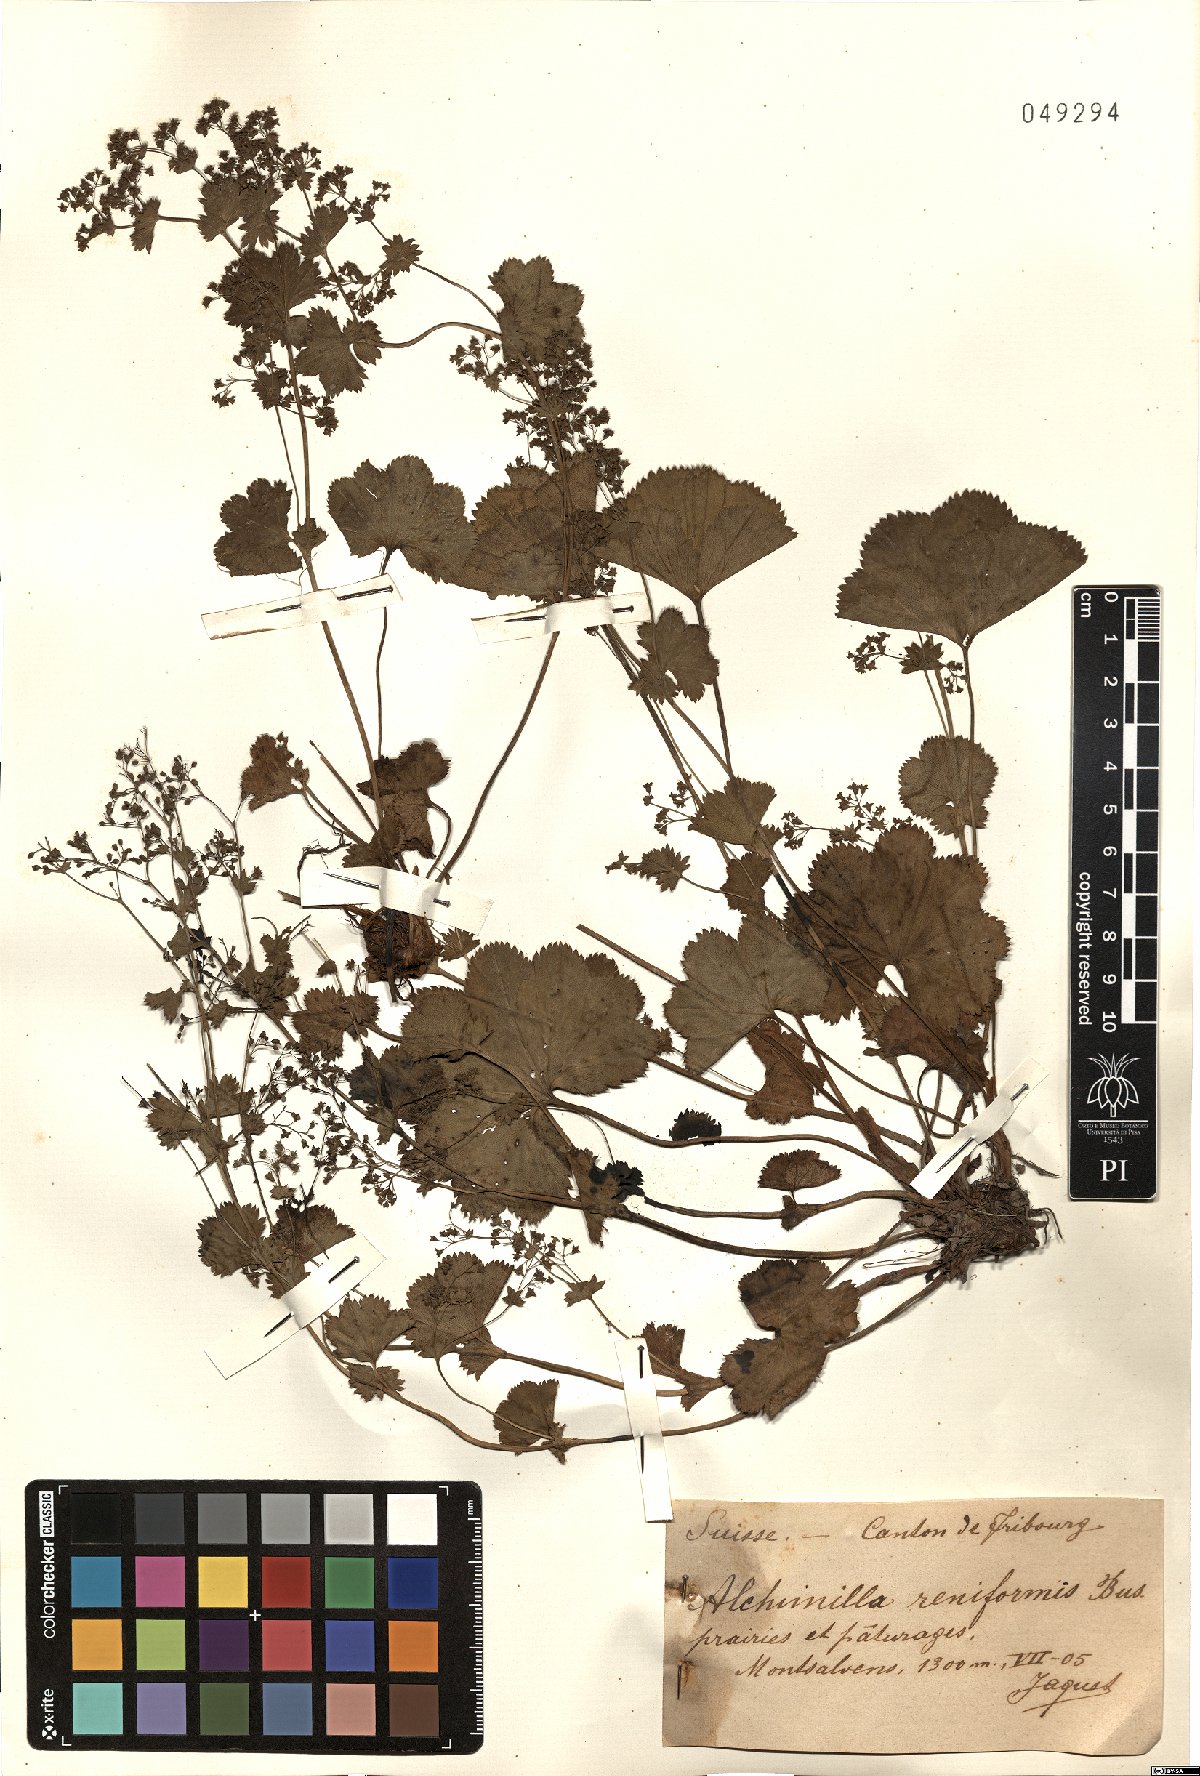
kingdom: Plantae
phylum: Tracheophyta
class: Magnoliopsida
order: Rosales
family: Rosaceae
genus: Alchemilla
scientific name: Alchemilla reniformis
